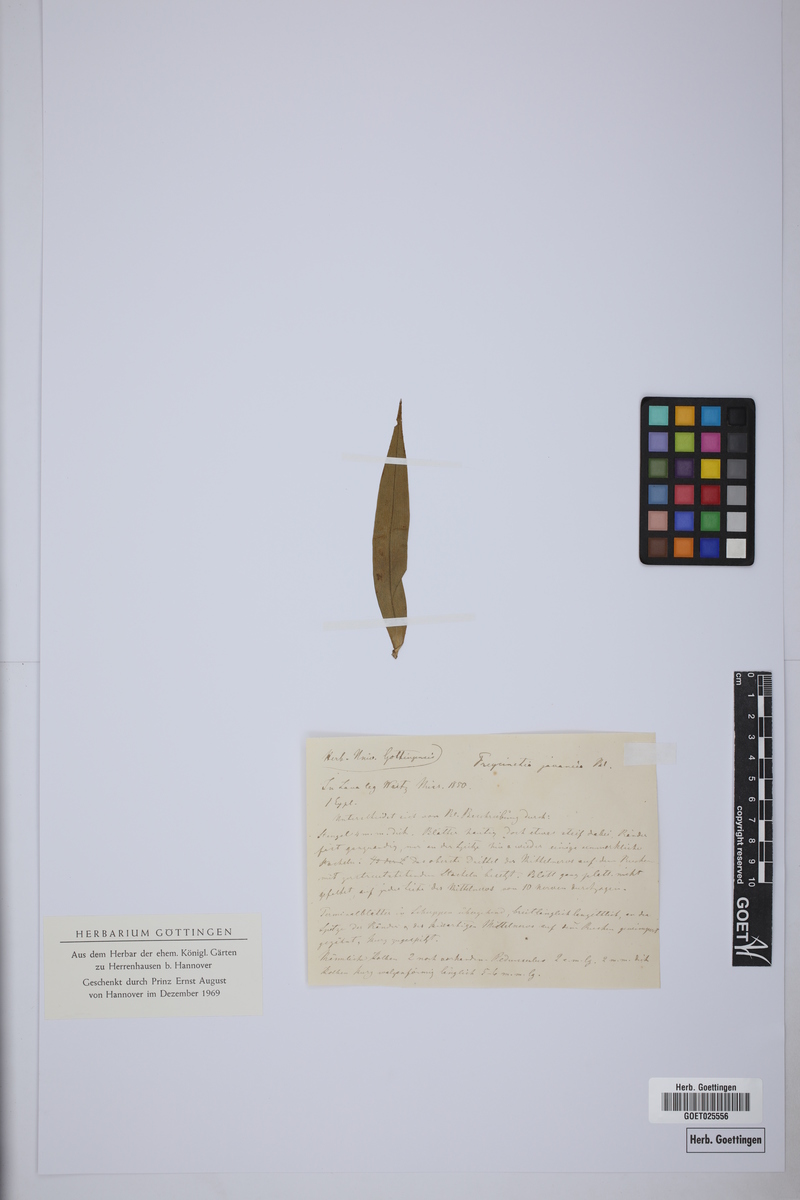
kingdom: Plantae
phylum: Tracheophyta
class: Liliopsida
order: Pandanales
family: Pandanaceae
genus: Freycinetia
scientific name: Freycinetia javanica
